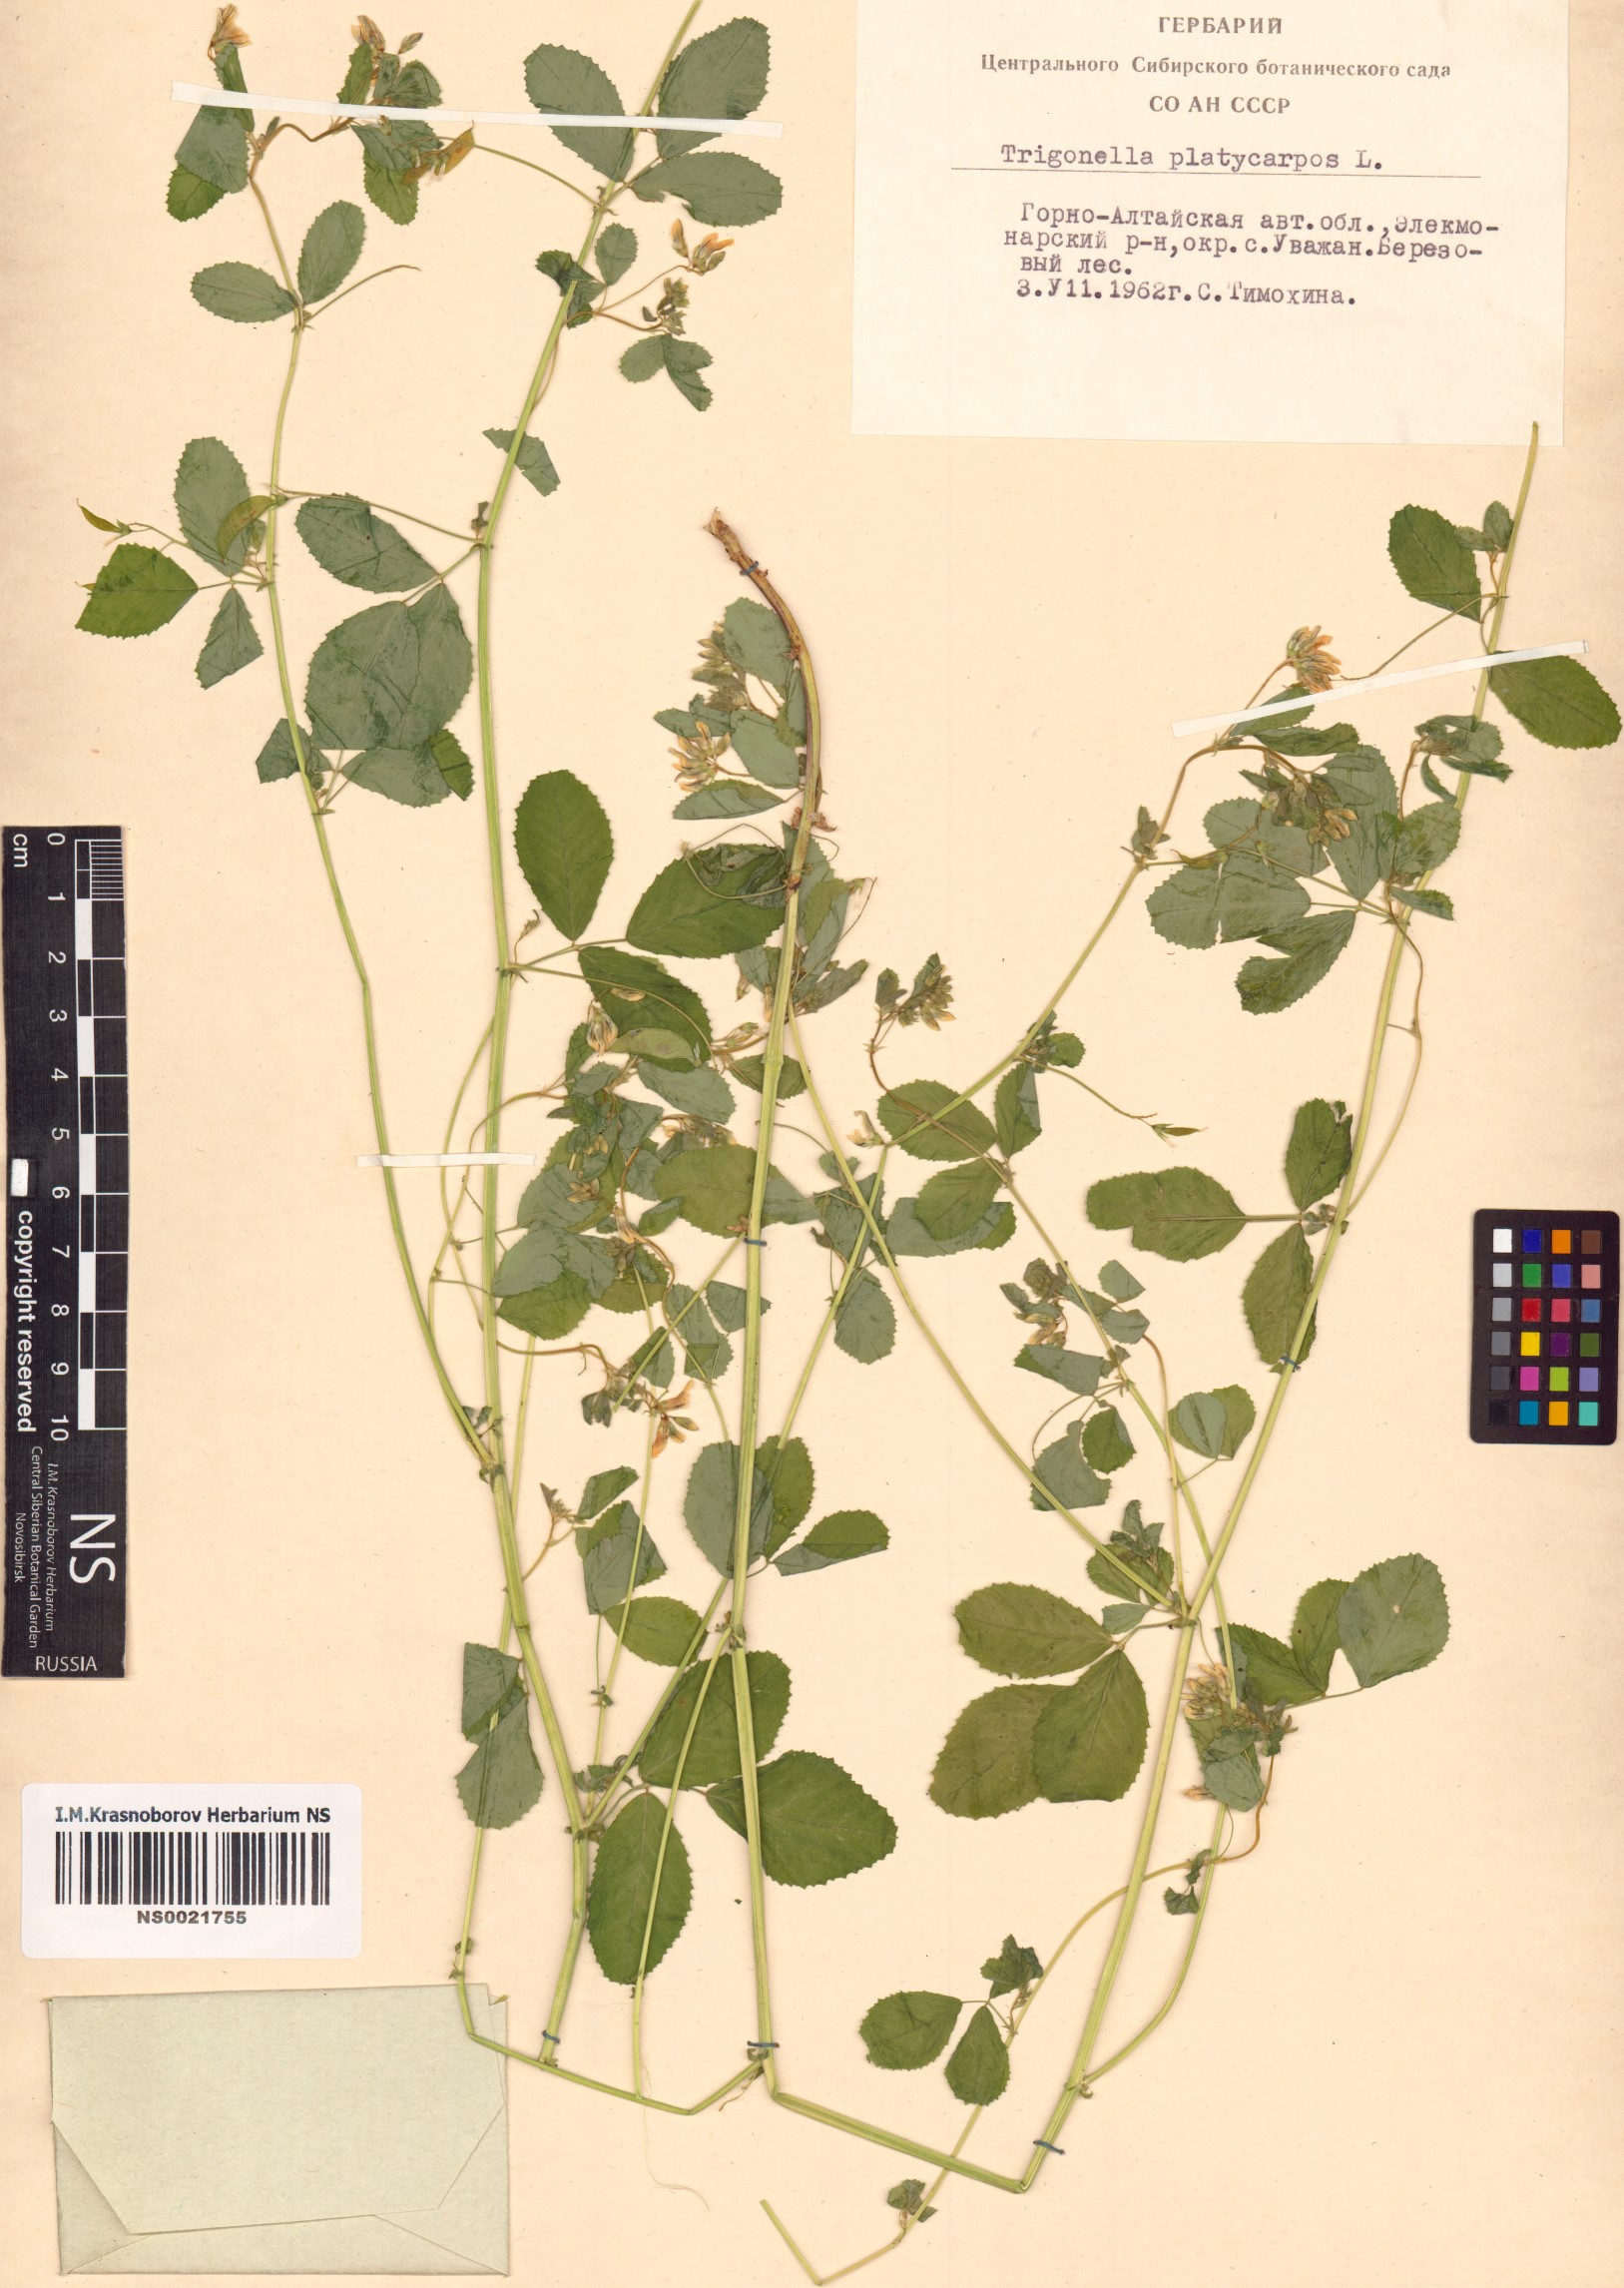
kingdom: Plantae
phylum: Tracheophyta
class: Magnoliopsida
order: Fabales
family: Fabaceae
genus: Medicago
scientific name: Medicago platycarpos
